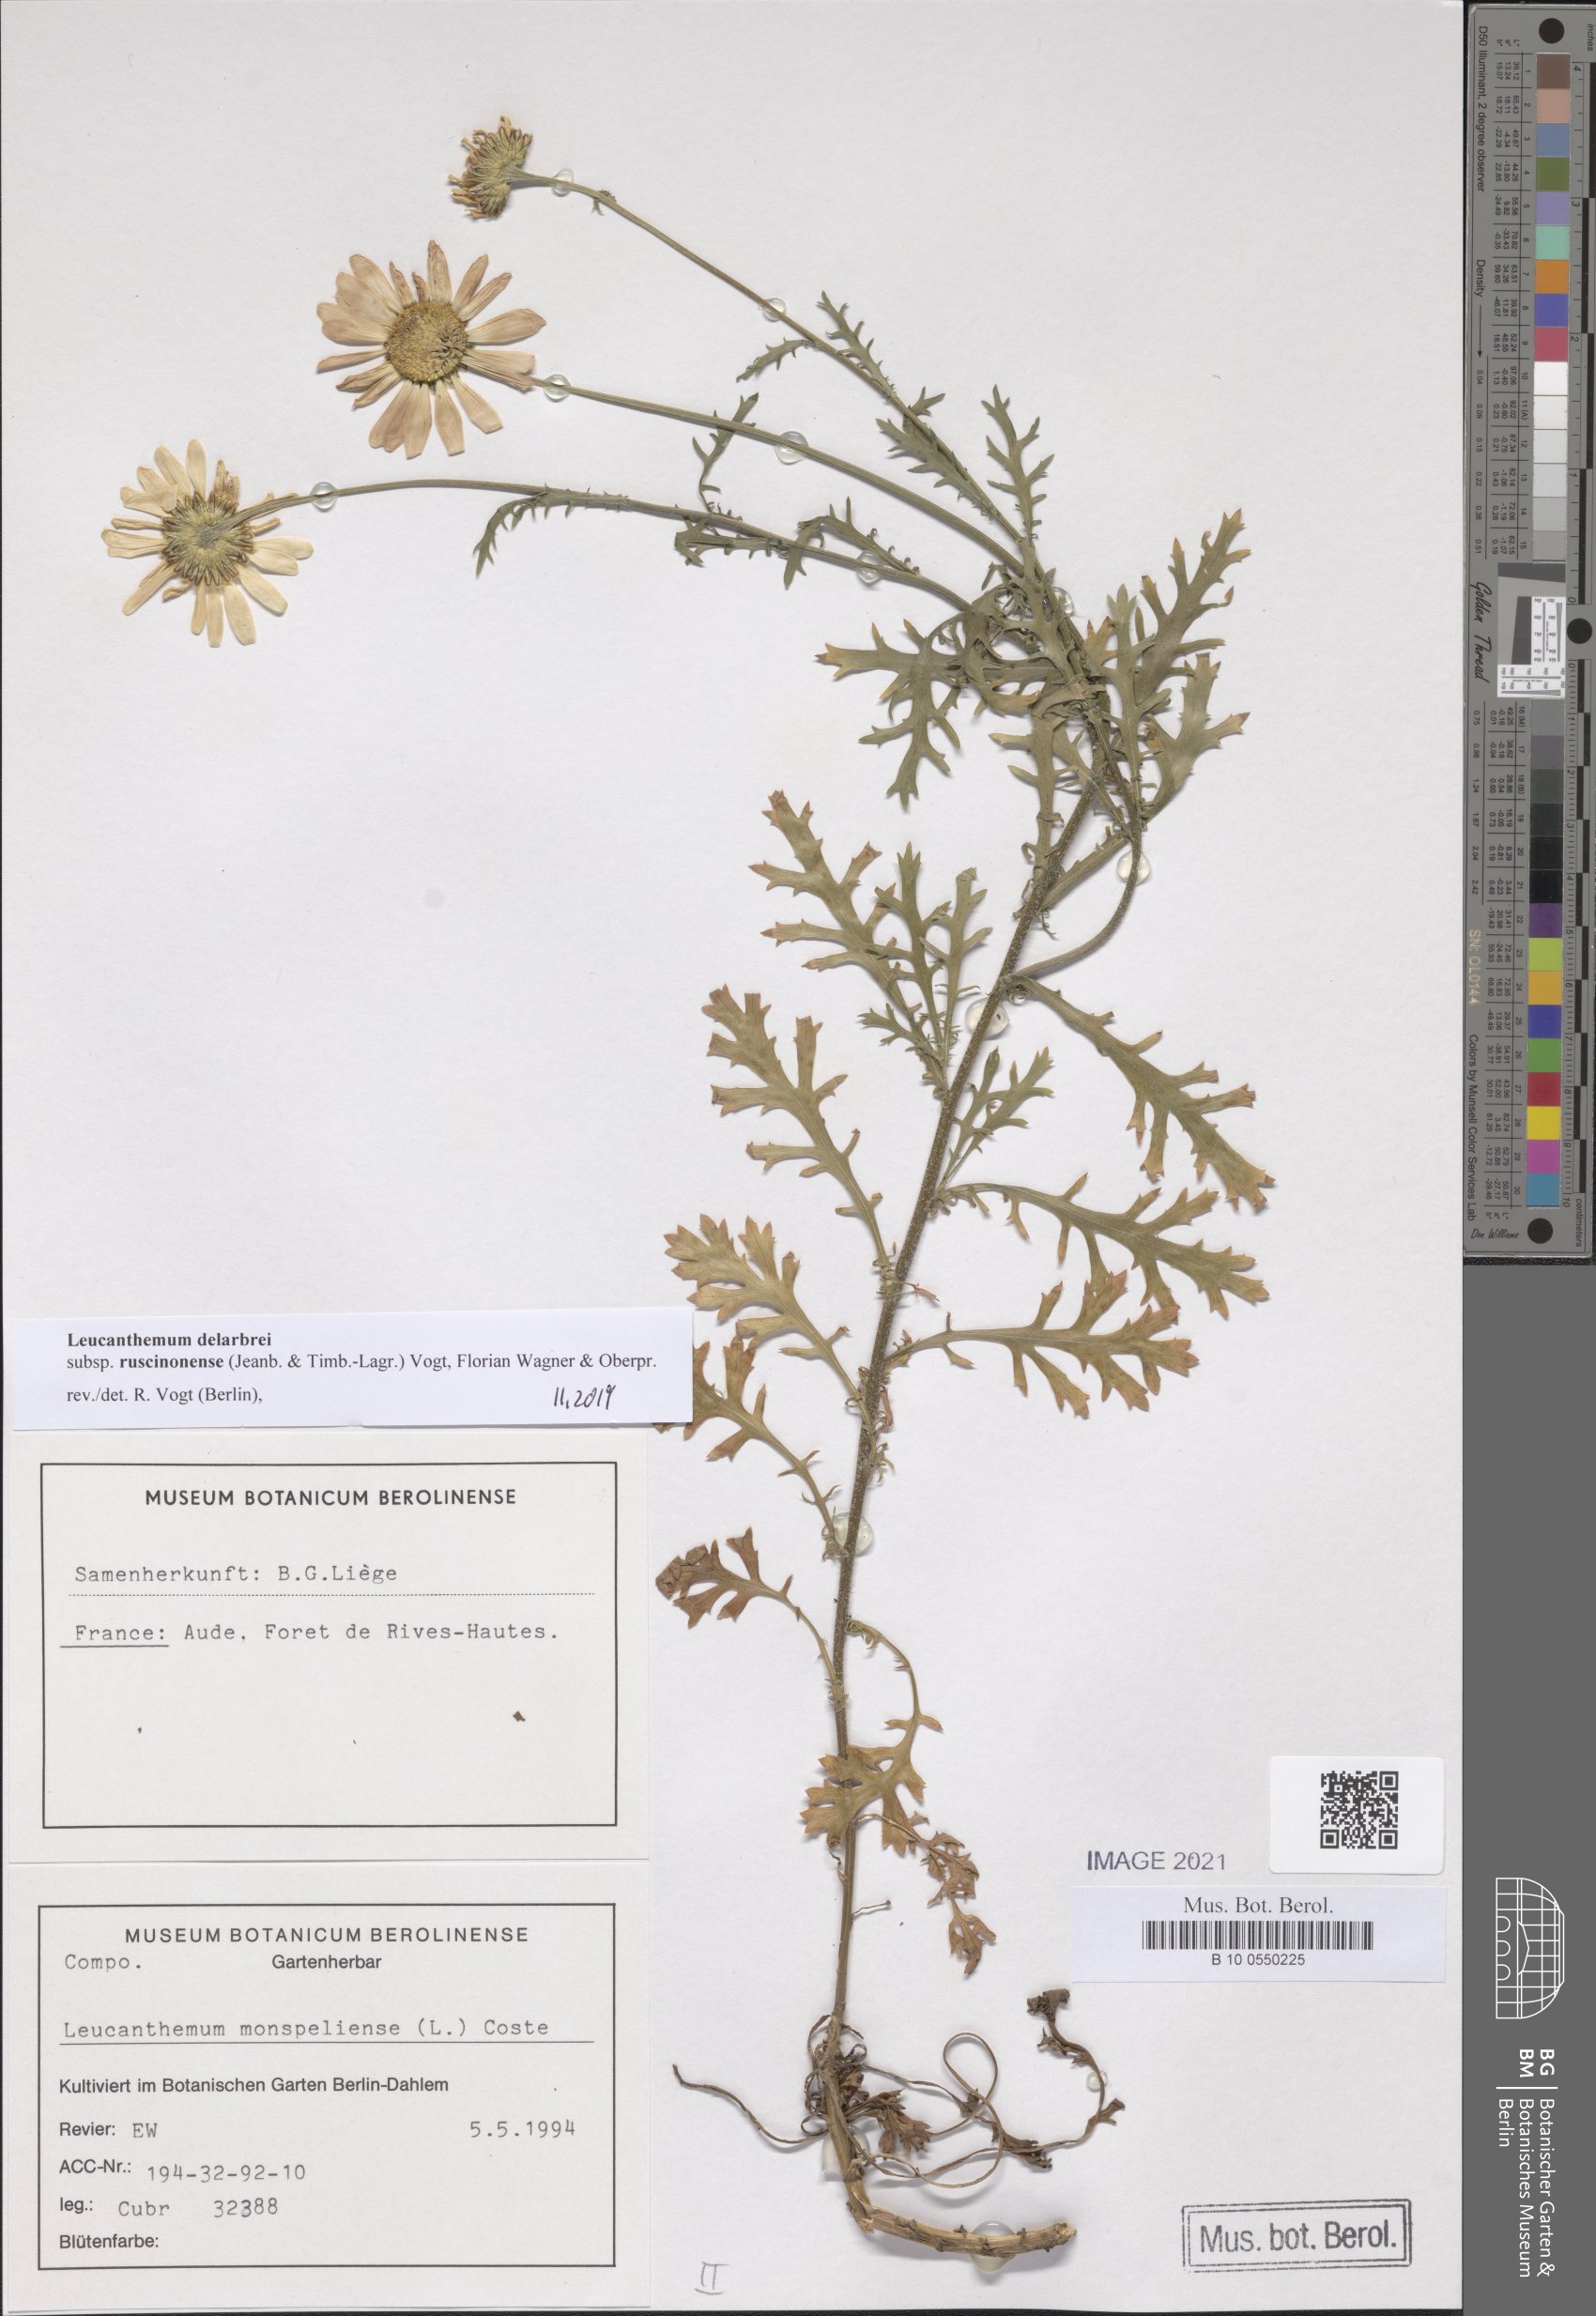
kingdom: Plantae
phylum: Tracheophyta
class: Magnoliopsida
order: Asterales
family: Asteraceae
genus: Leucanthemum
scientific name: Leucanthemum delarbrei
